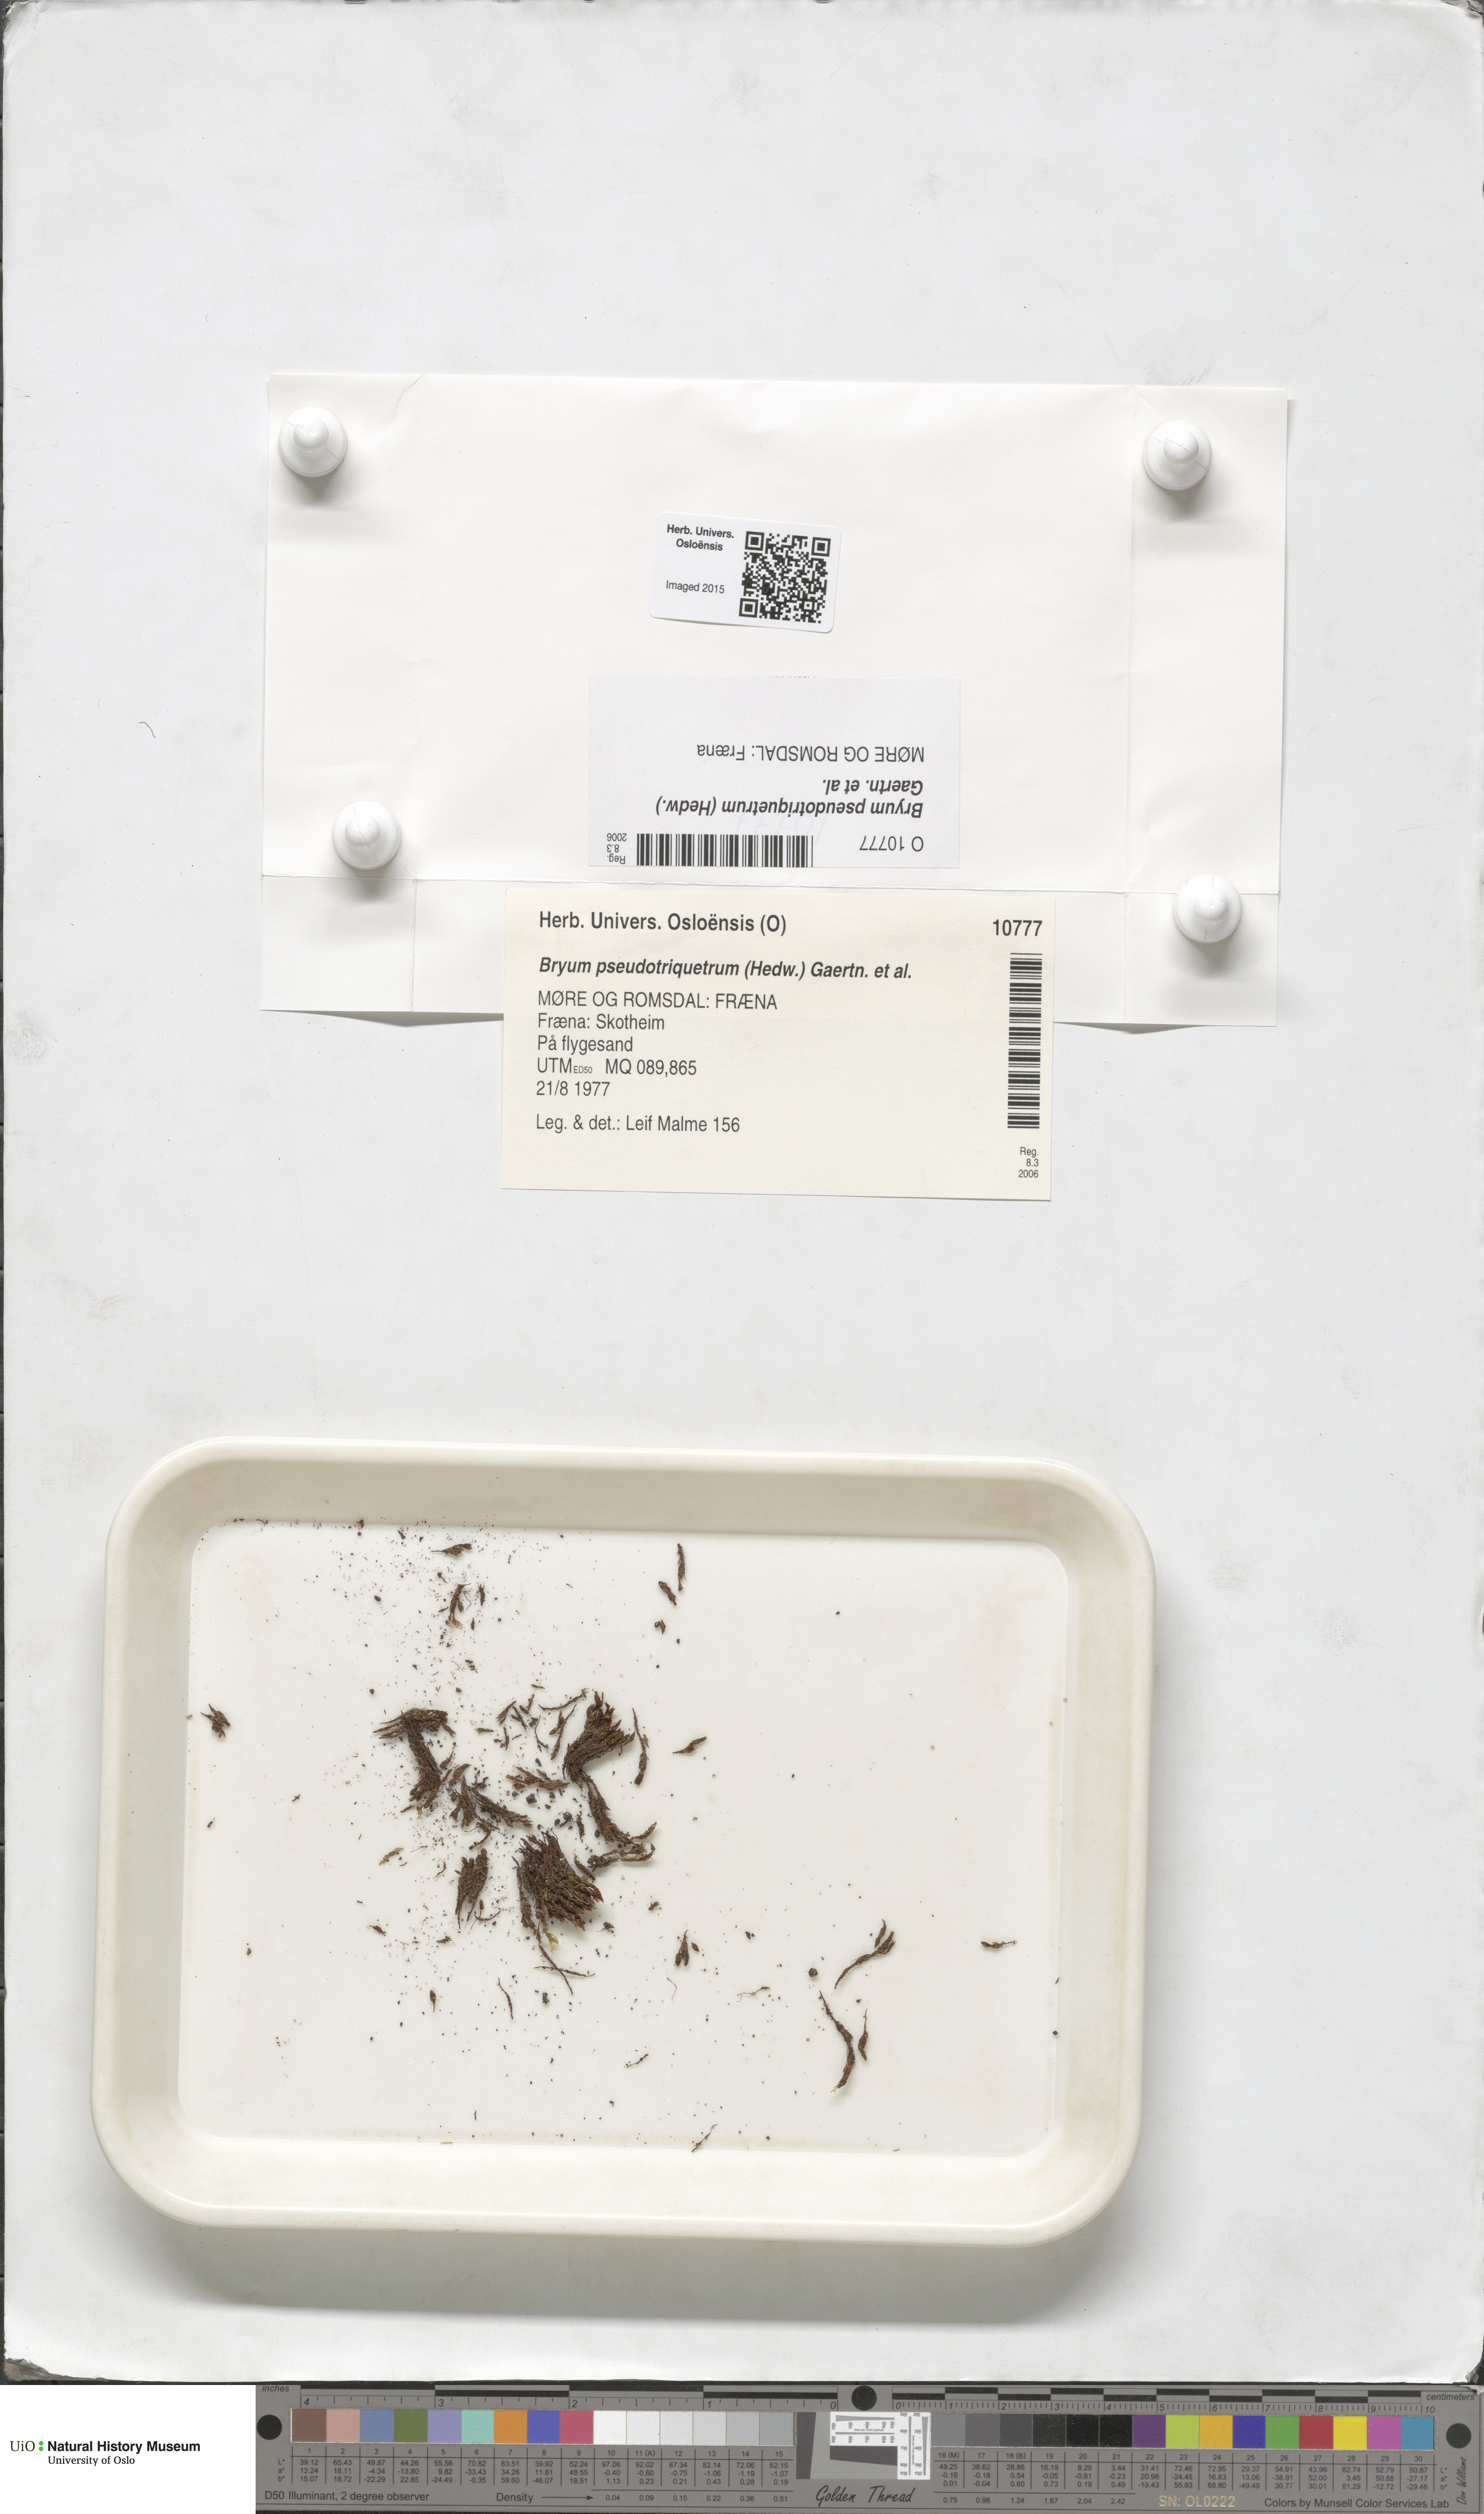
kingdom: Plantae
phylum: Bryophyta
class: Bryopsida
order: Bryales
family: Bryaceae
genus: Ptychostomum
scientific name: Ptychostomum pseudotriquetrum
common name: Long-leaved thread moss
